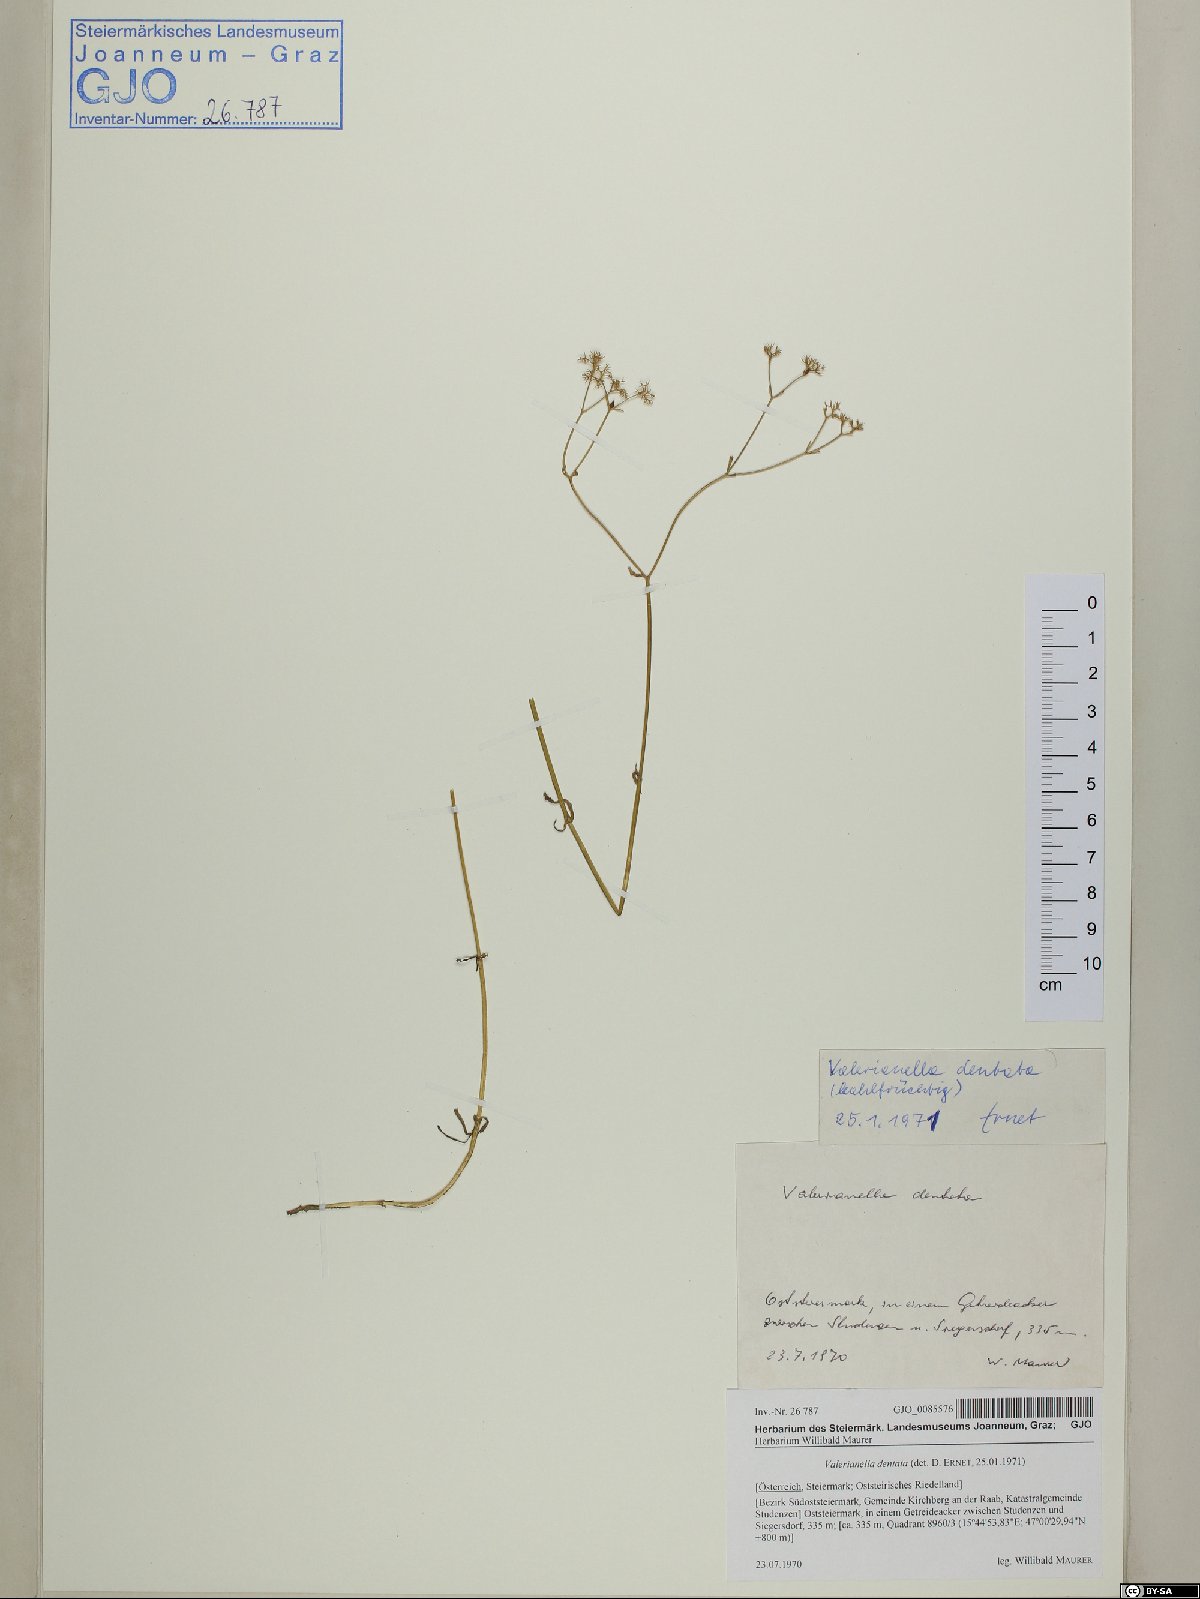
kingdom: Plantae
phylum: Tracheophyta
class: Magnoliopsida
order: Dipsacales
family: Caprifoliaceae
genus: Valerianella
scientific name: Valerianella dentata
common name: Narrow-fruited cornsalad
